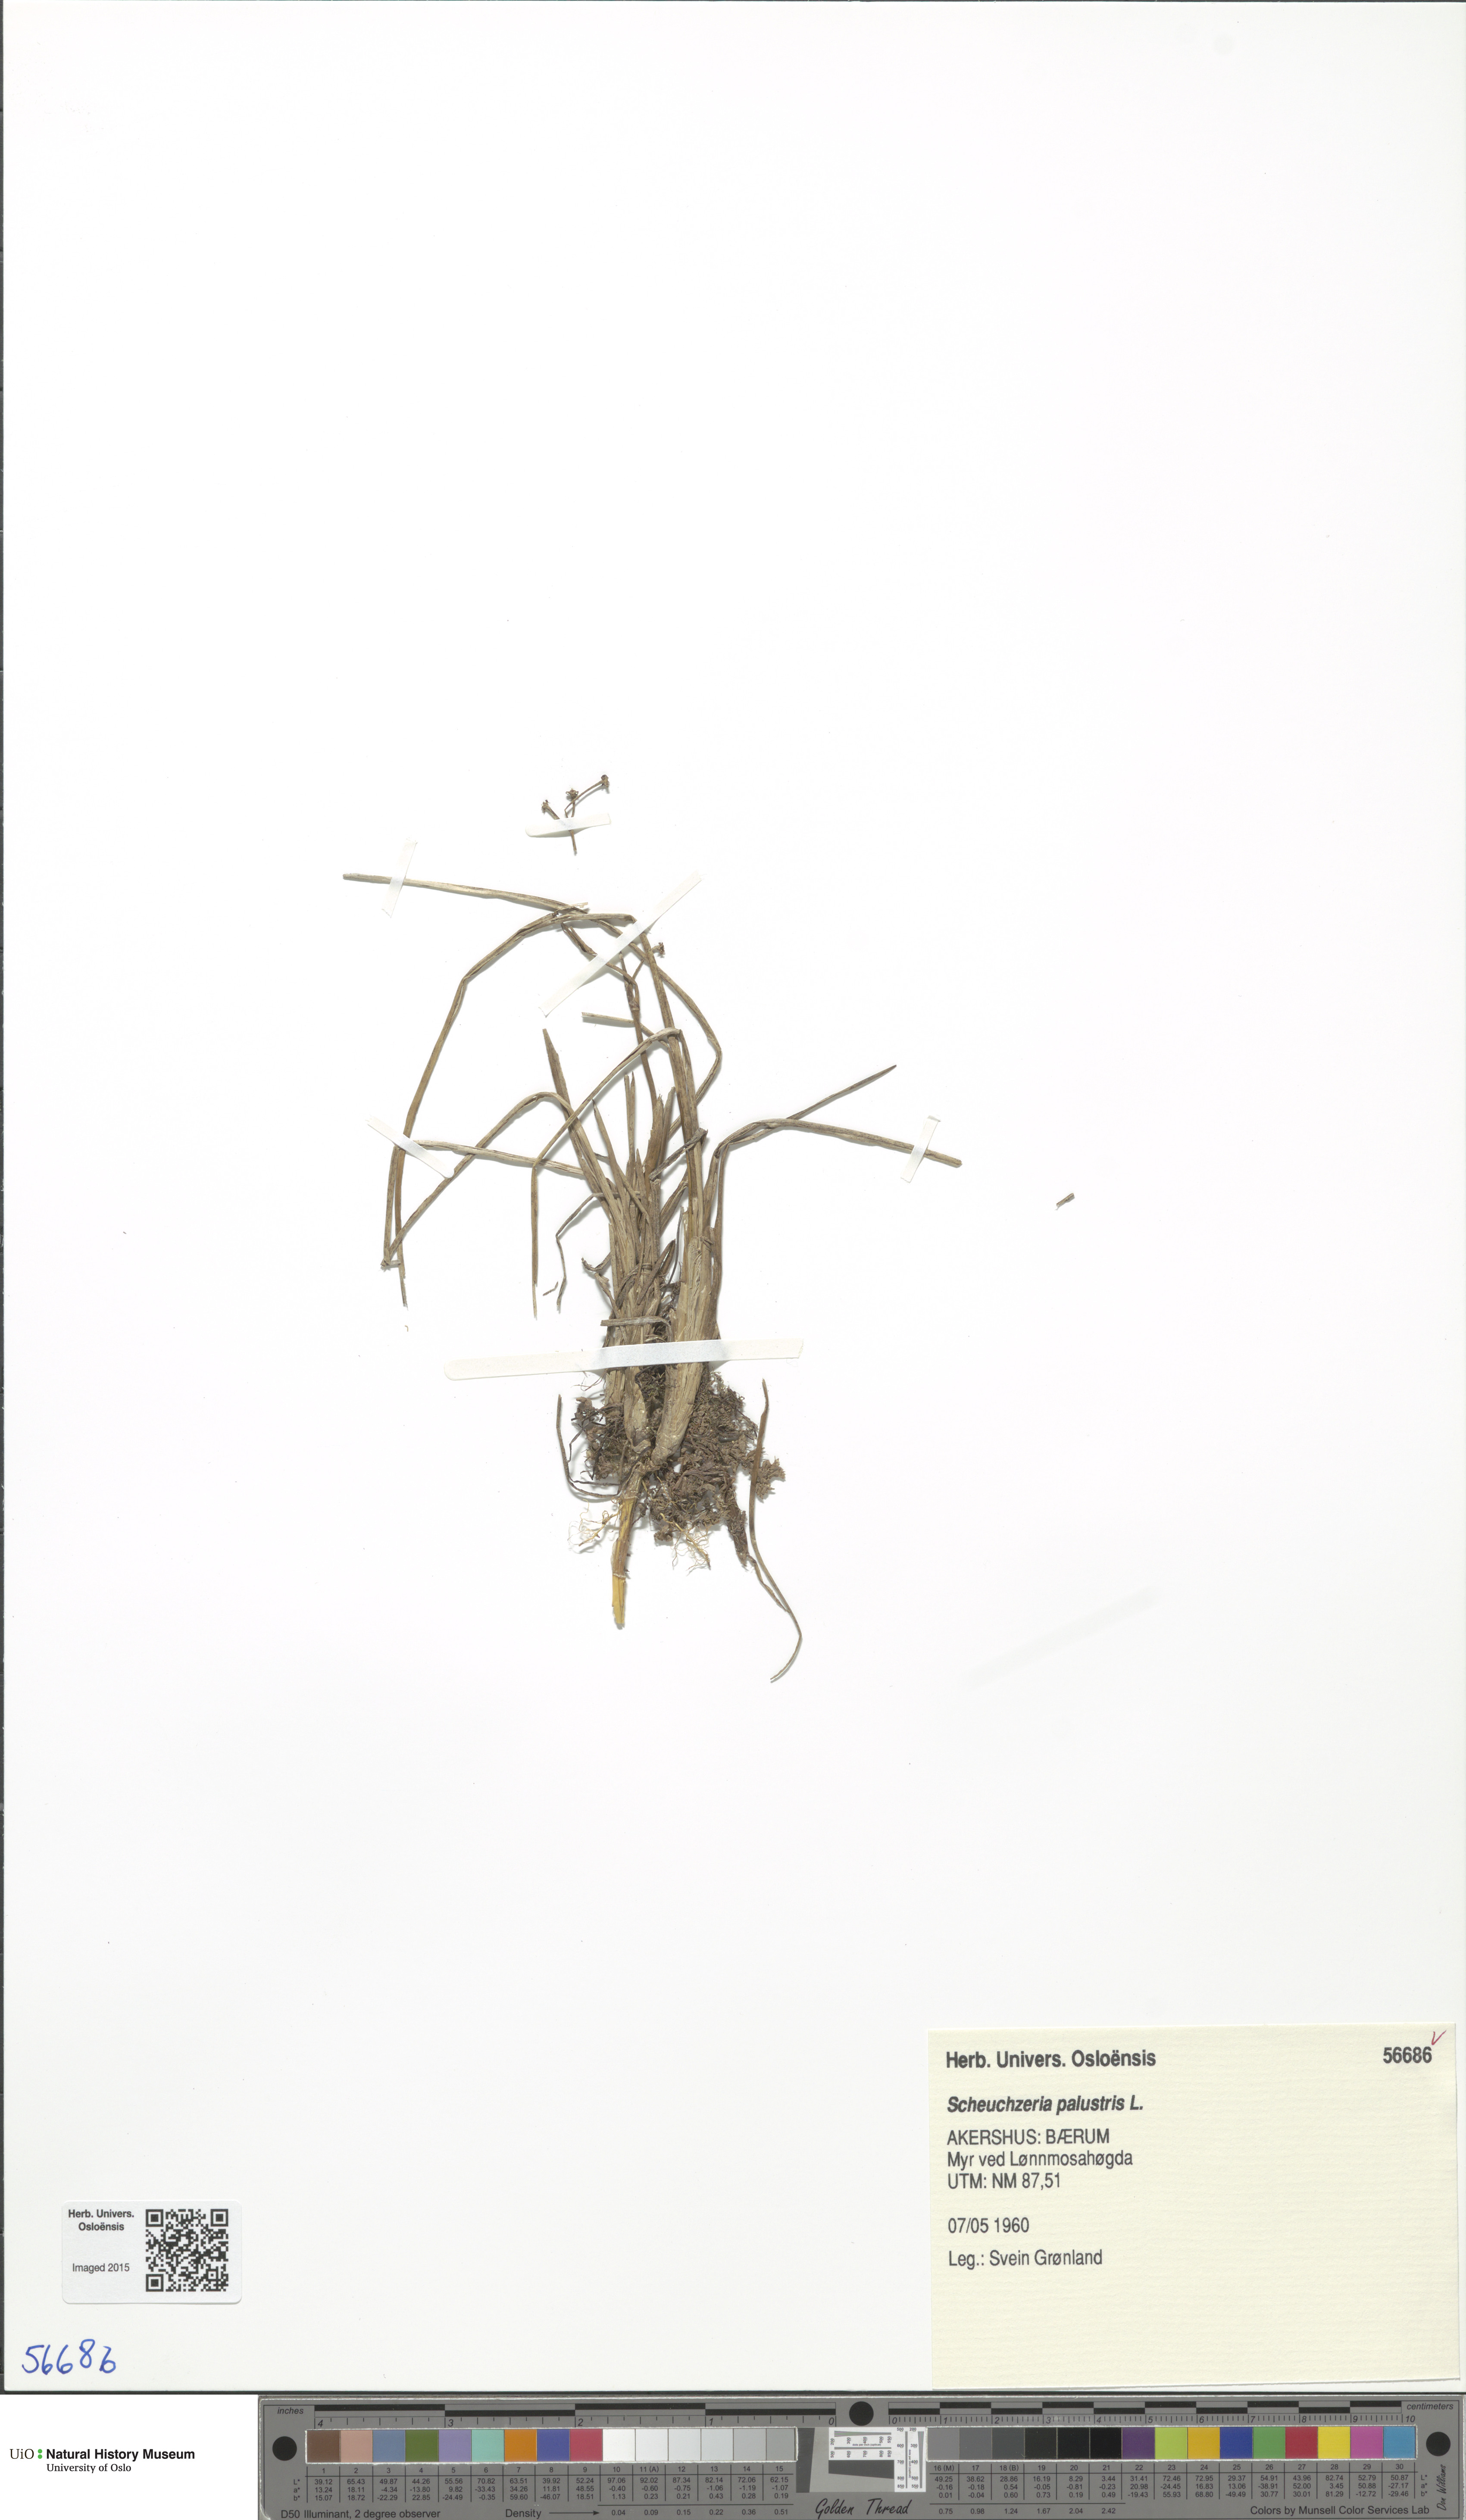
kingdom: Plantae
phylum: Tracheophyta
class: Liliopsida
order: Alismatales
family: Scheuchzeriaceae
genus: Scheuchzeria
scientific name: Scheuchzeria palustris
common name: Rannoch-rush
